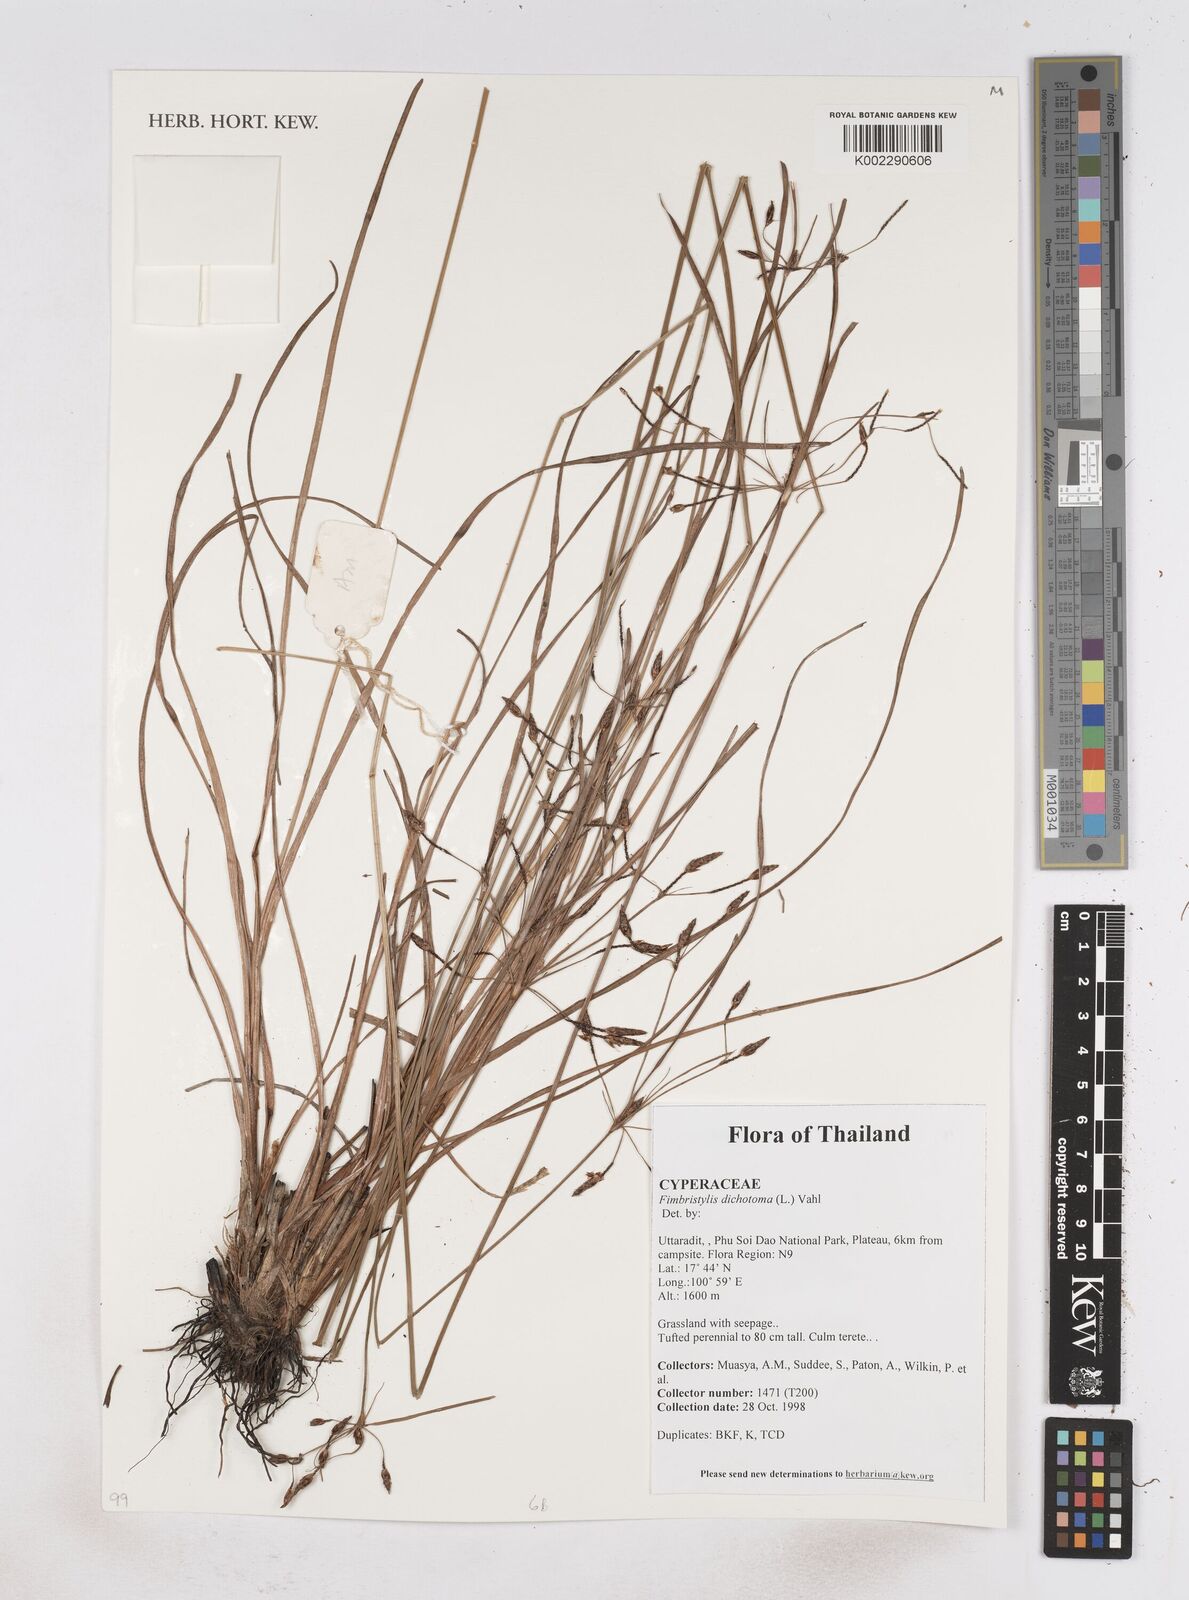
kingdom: Plantae
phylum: Tracheophyta
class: Liliopsida
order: Poales
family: Cyperaceae
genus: Fimbristylis
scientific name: Fimbristylis dichotoma
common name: Forked fimbry
